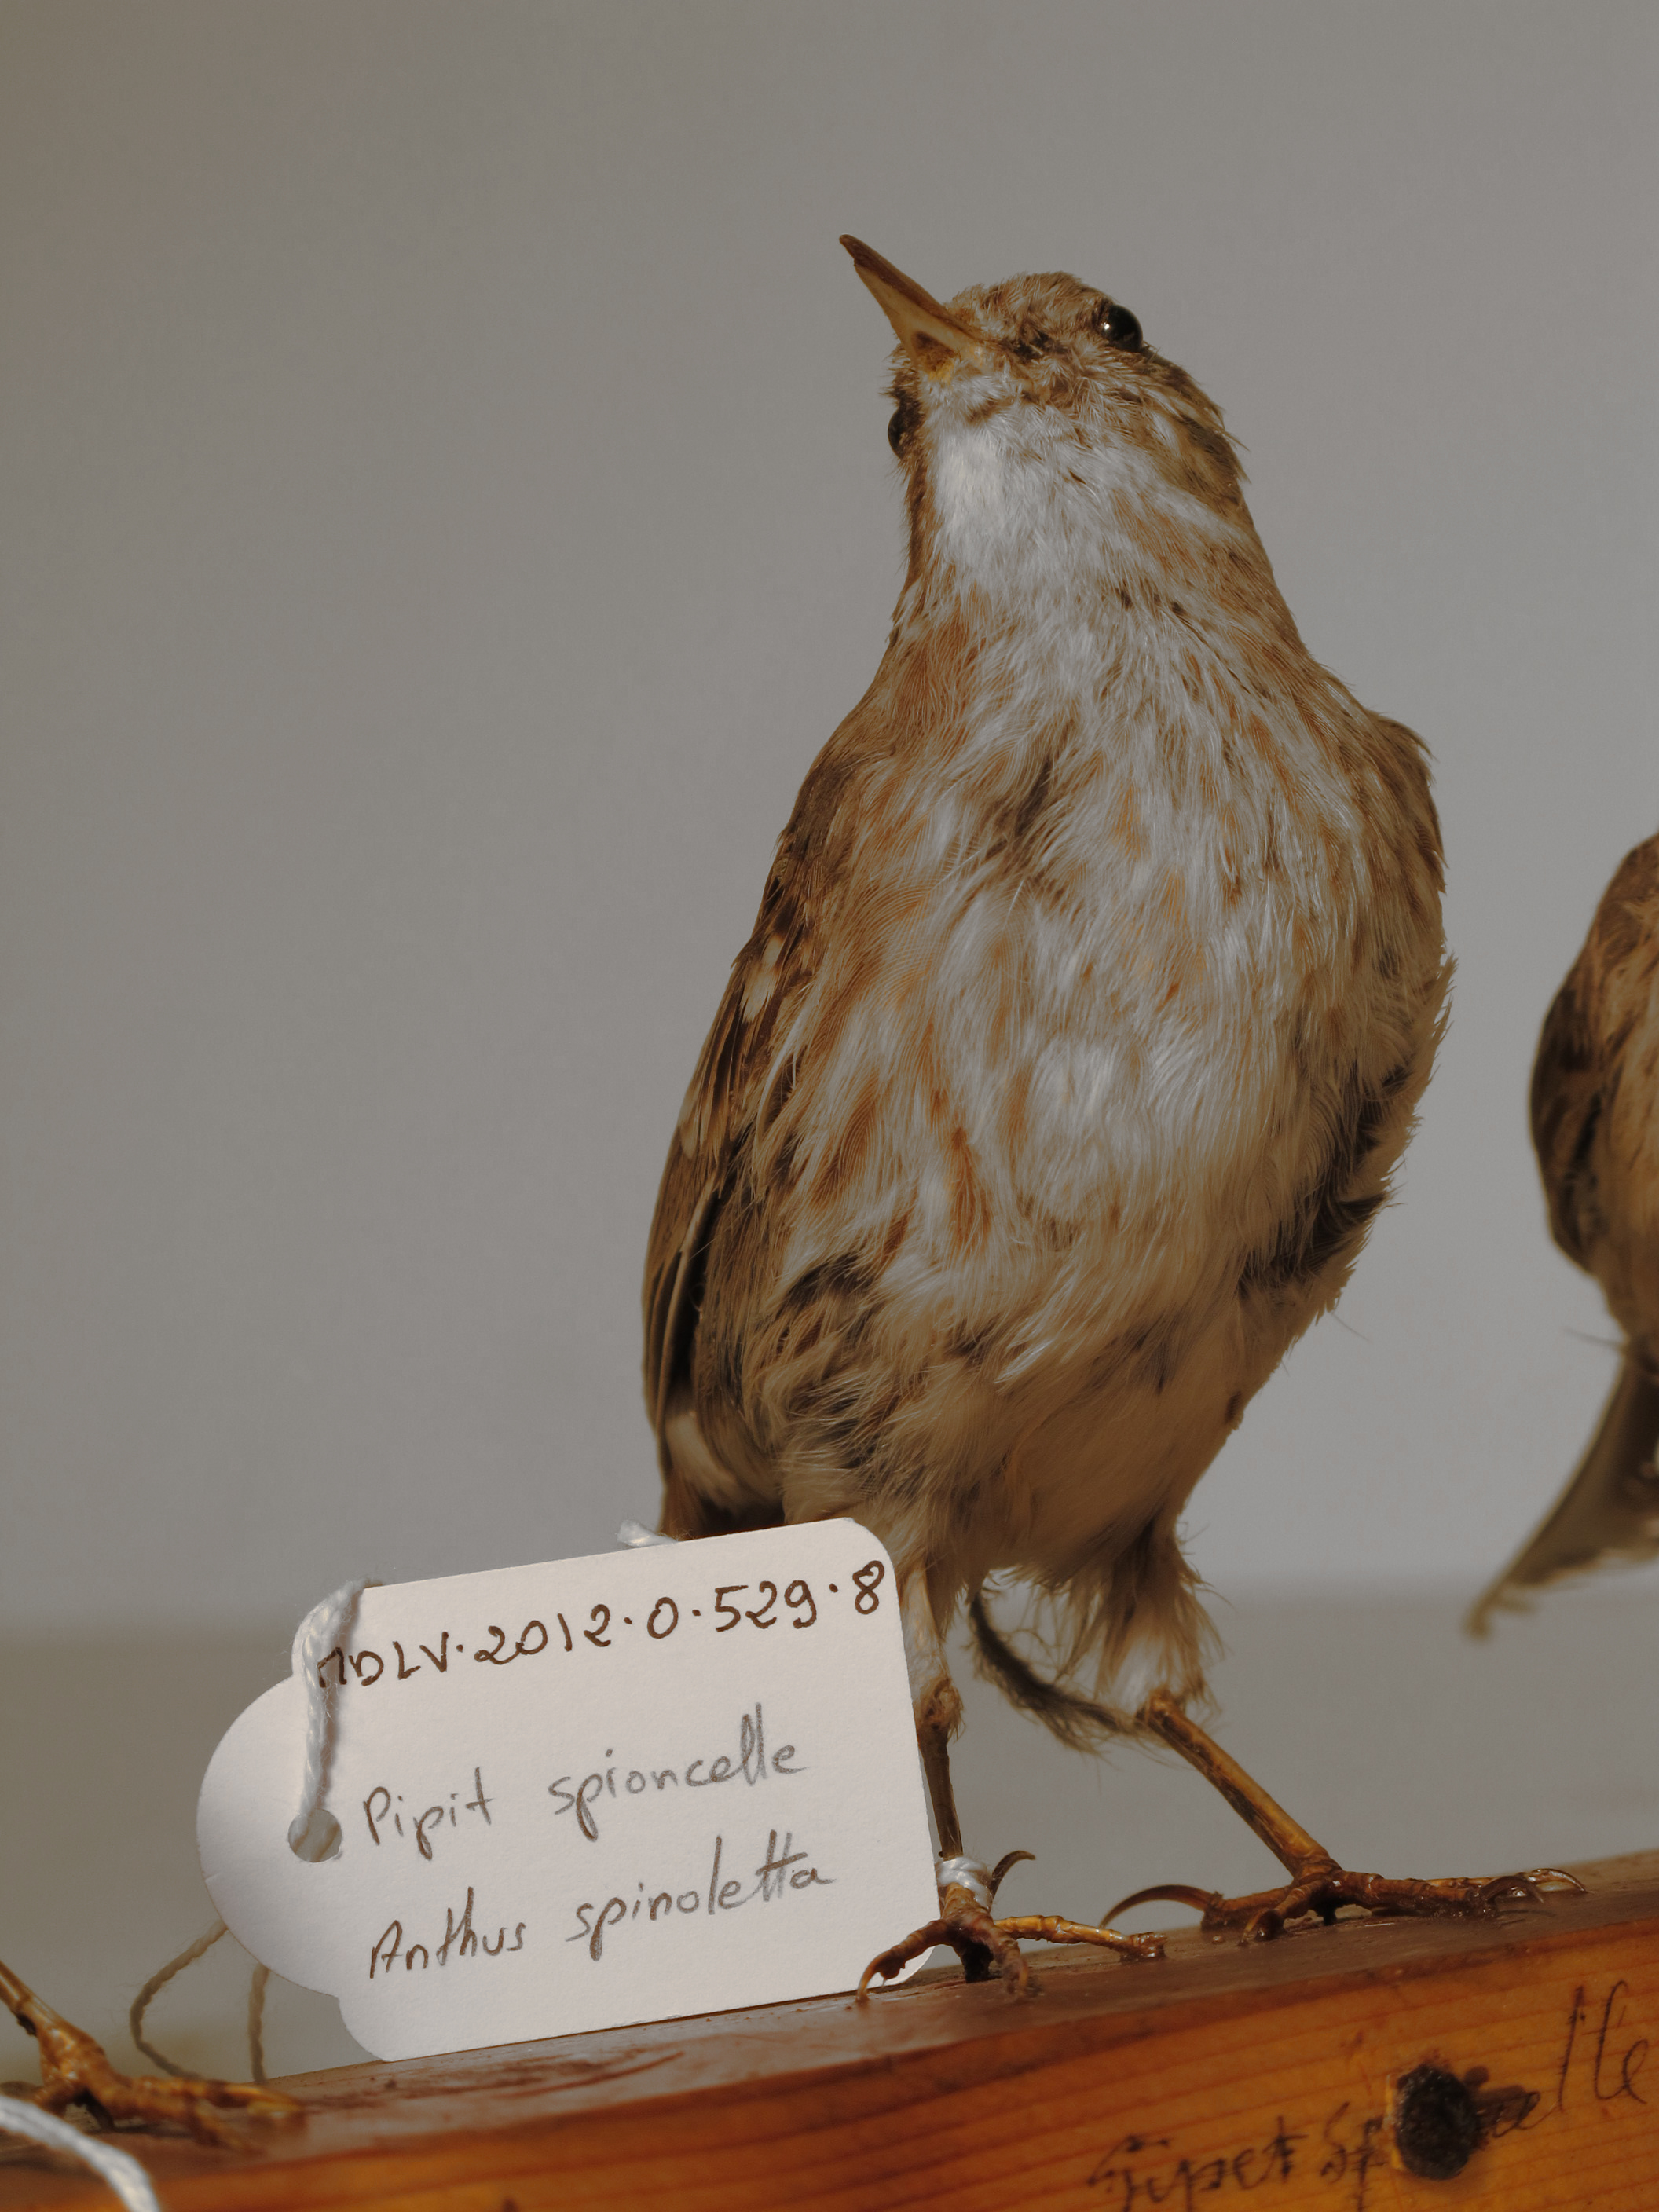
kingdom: Animalia
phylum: Chordata
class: Aves
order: Passeriformes
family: Motacillidae
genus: Anthus
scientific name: Anthus spinoletta
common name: Water Pipit
